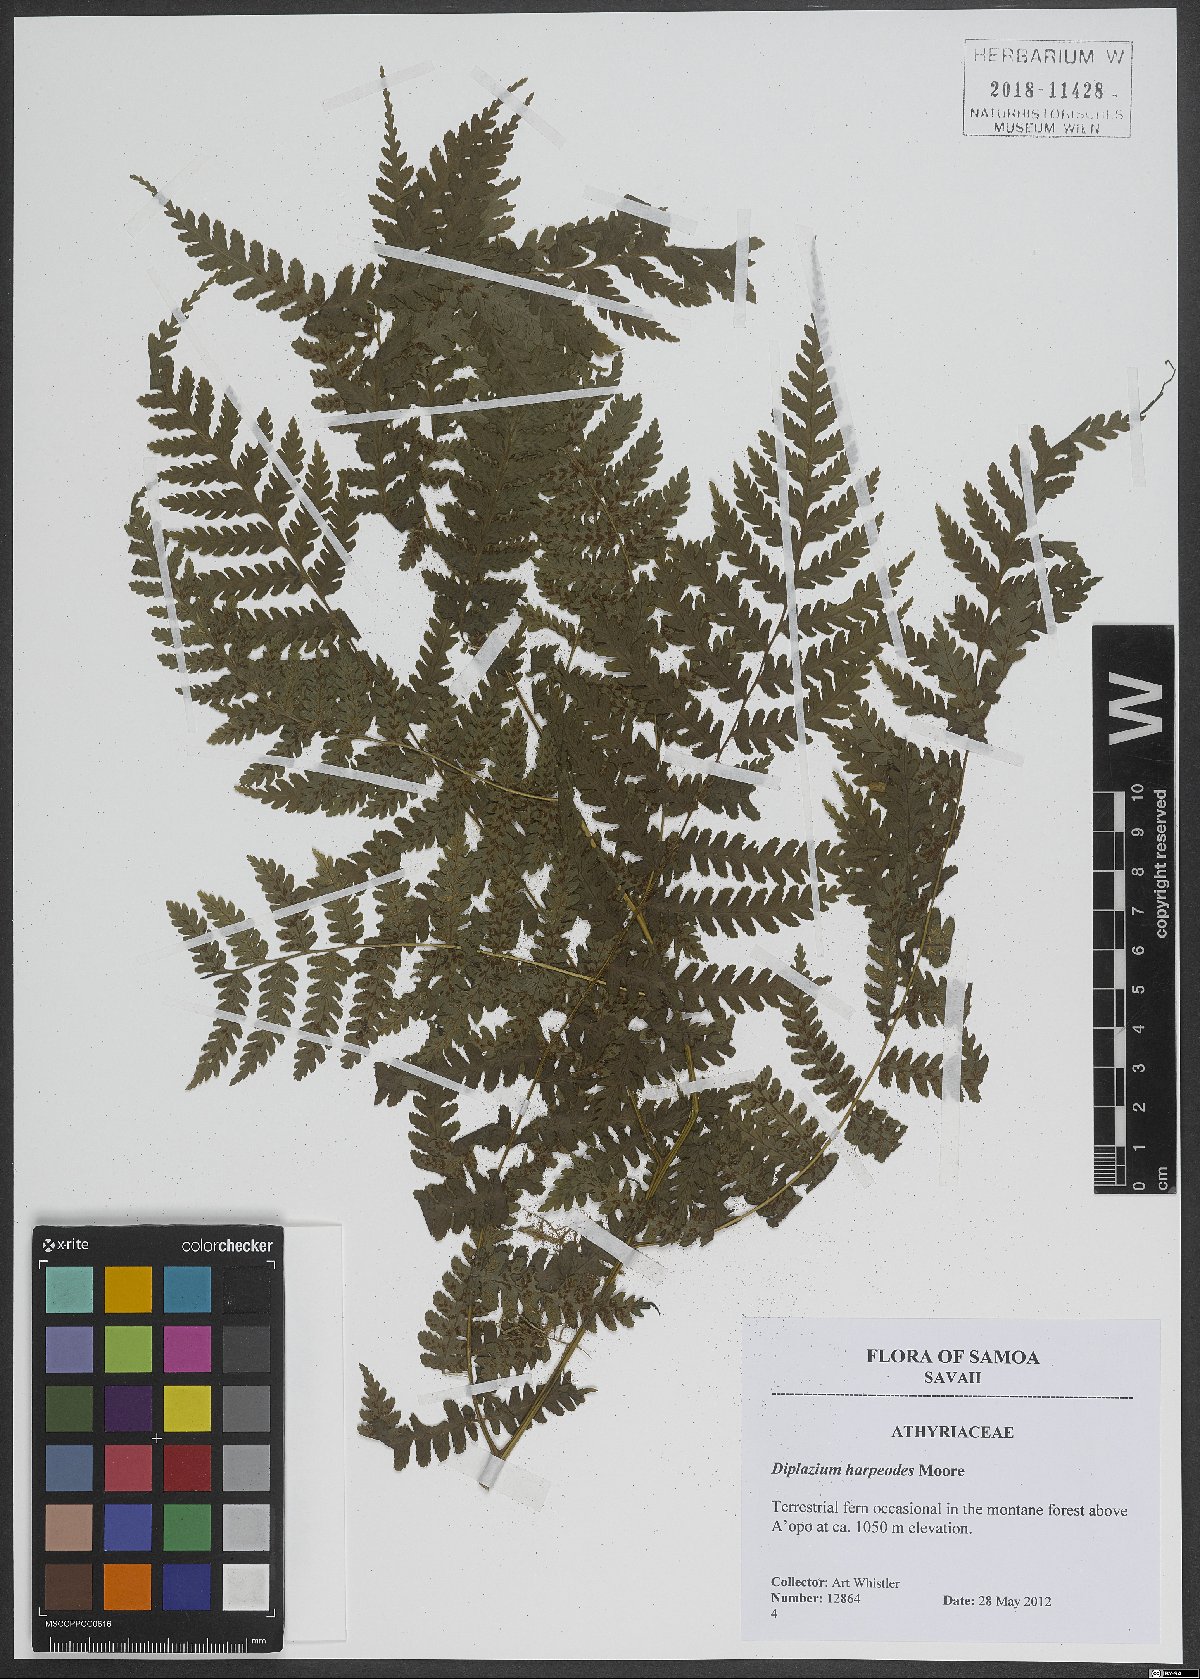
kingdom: Plantae
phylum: Tracheophyta
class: Polypodiopsida
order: Polypodiales
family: Athyriaceae
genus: Diplazium
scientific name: Diplazium harpeodes
